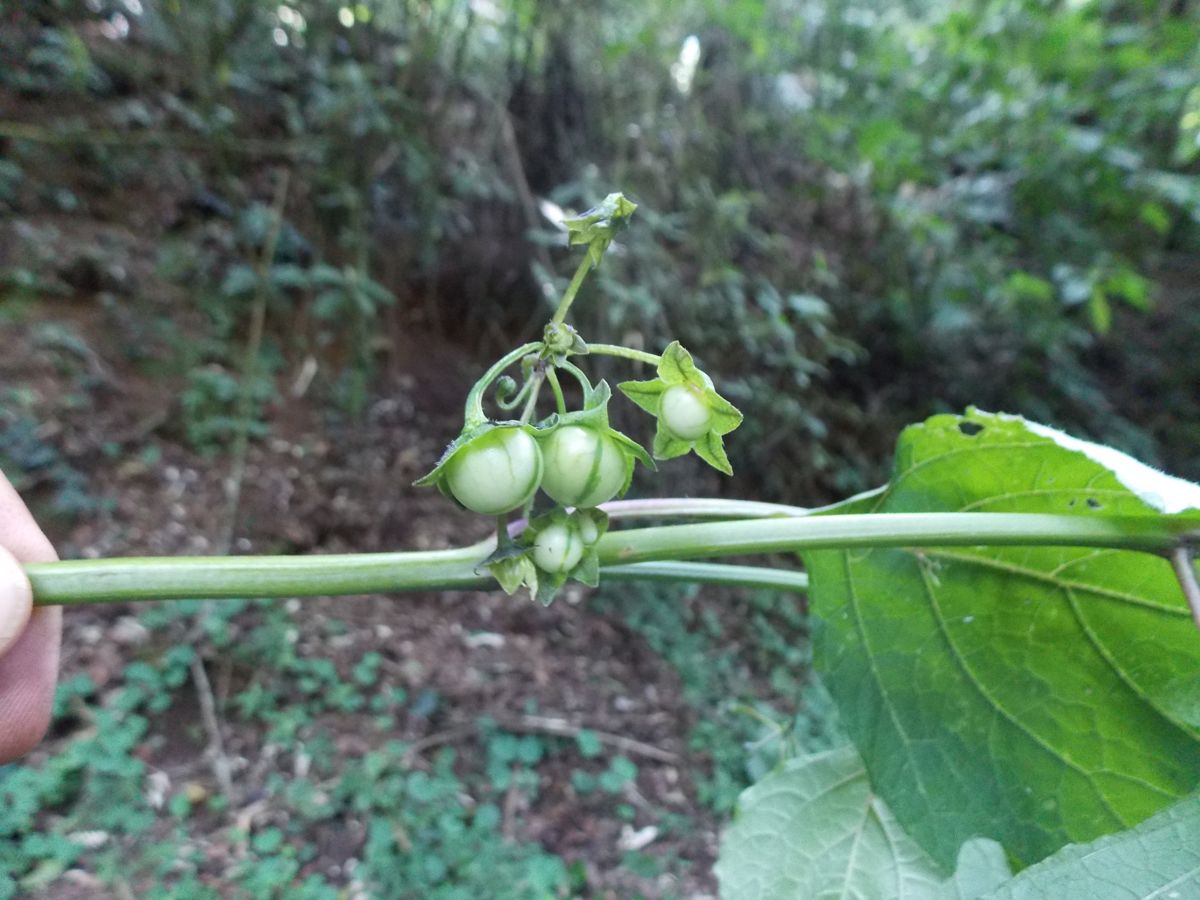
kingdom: Plantae
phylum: Tracheophyta
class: Magnoliopsida
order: Solanales
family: Solanaceae
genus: Brachistus
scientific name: Brachistus stramonifolius
